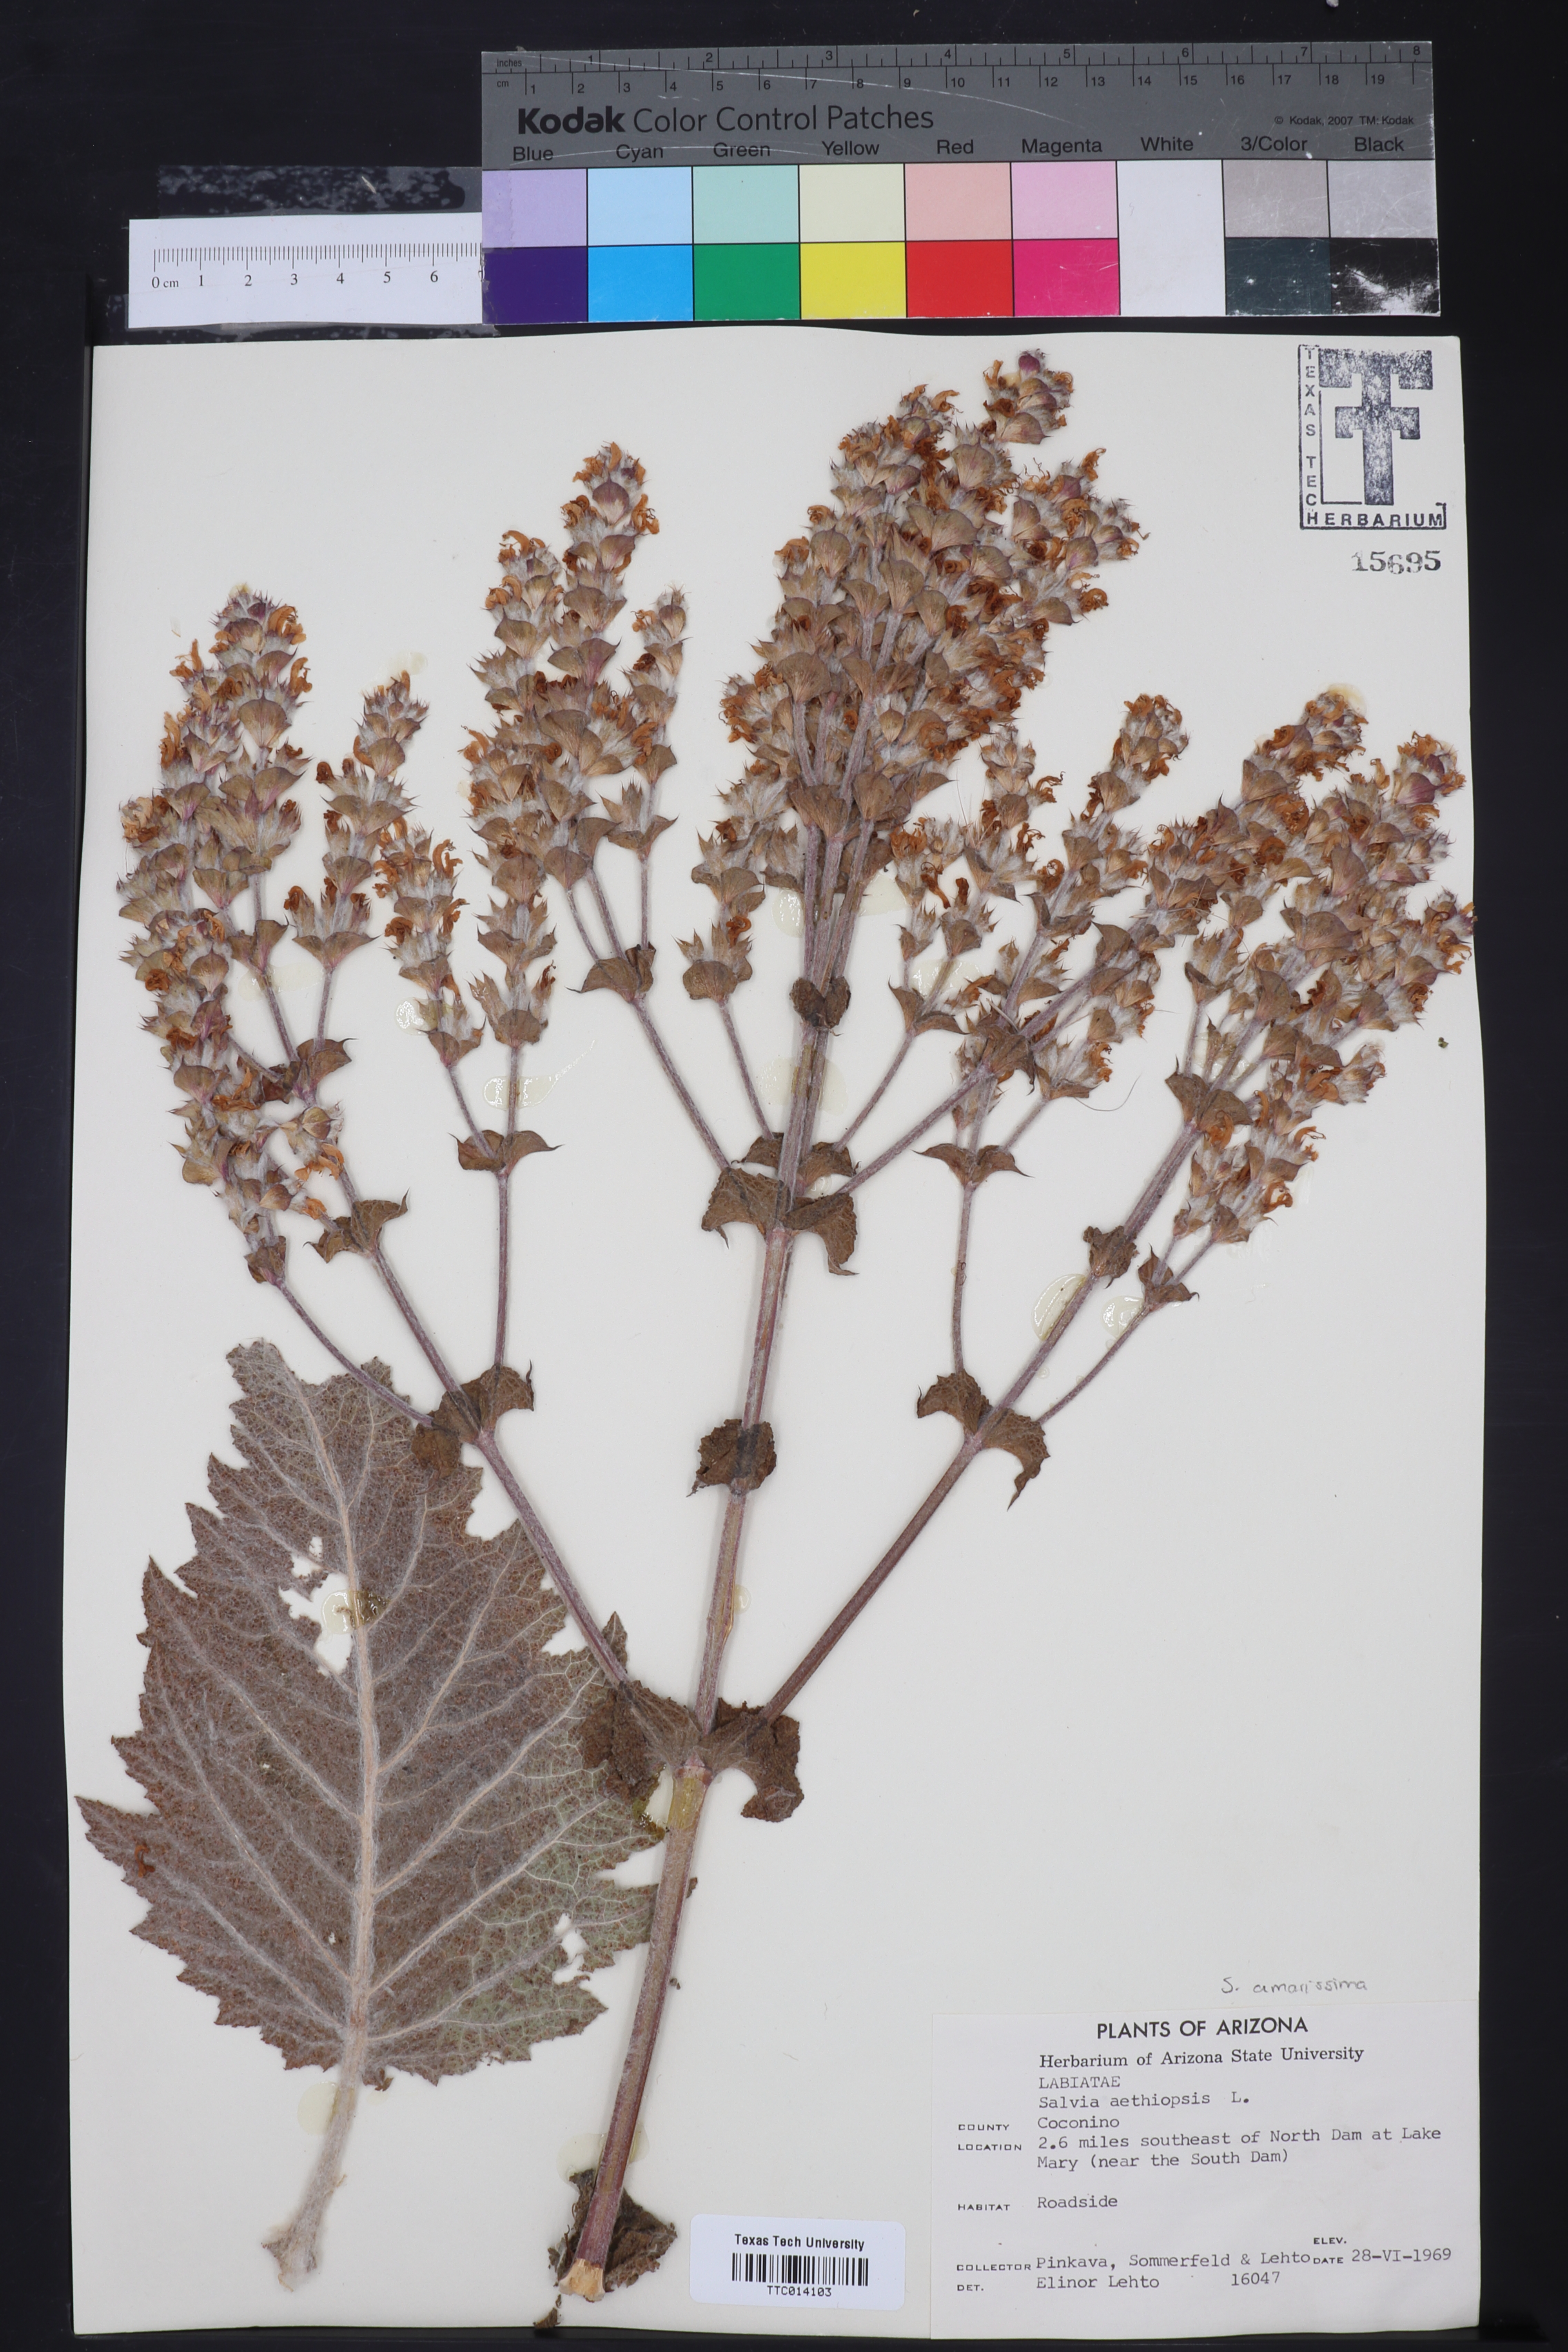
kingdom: Plantae
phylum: Tracheophyta
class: Magnoliopsida
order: Lamiales
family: Lamiaceae
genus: Salvia
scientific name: Salvia aethiopis
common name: Mediterranean sage
